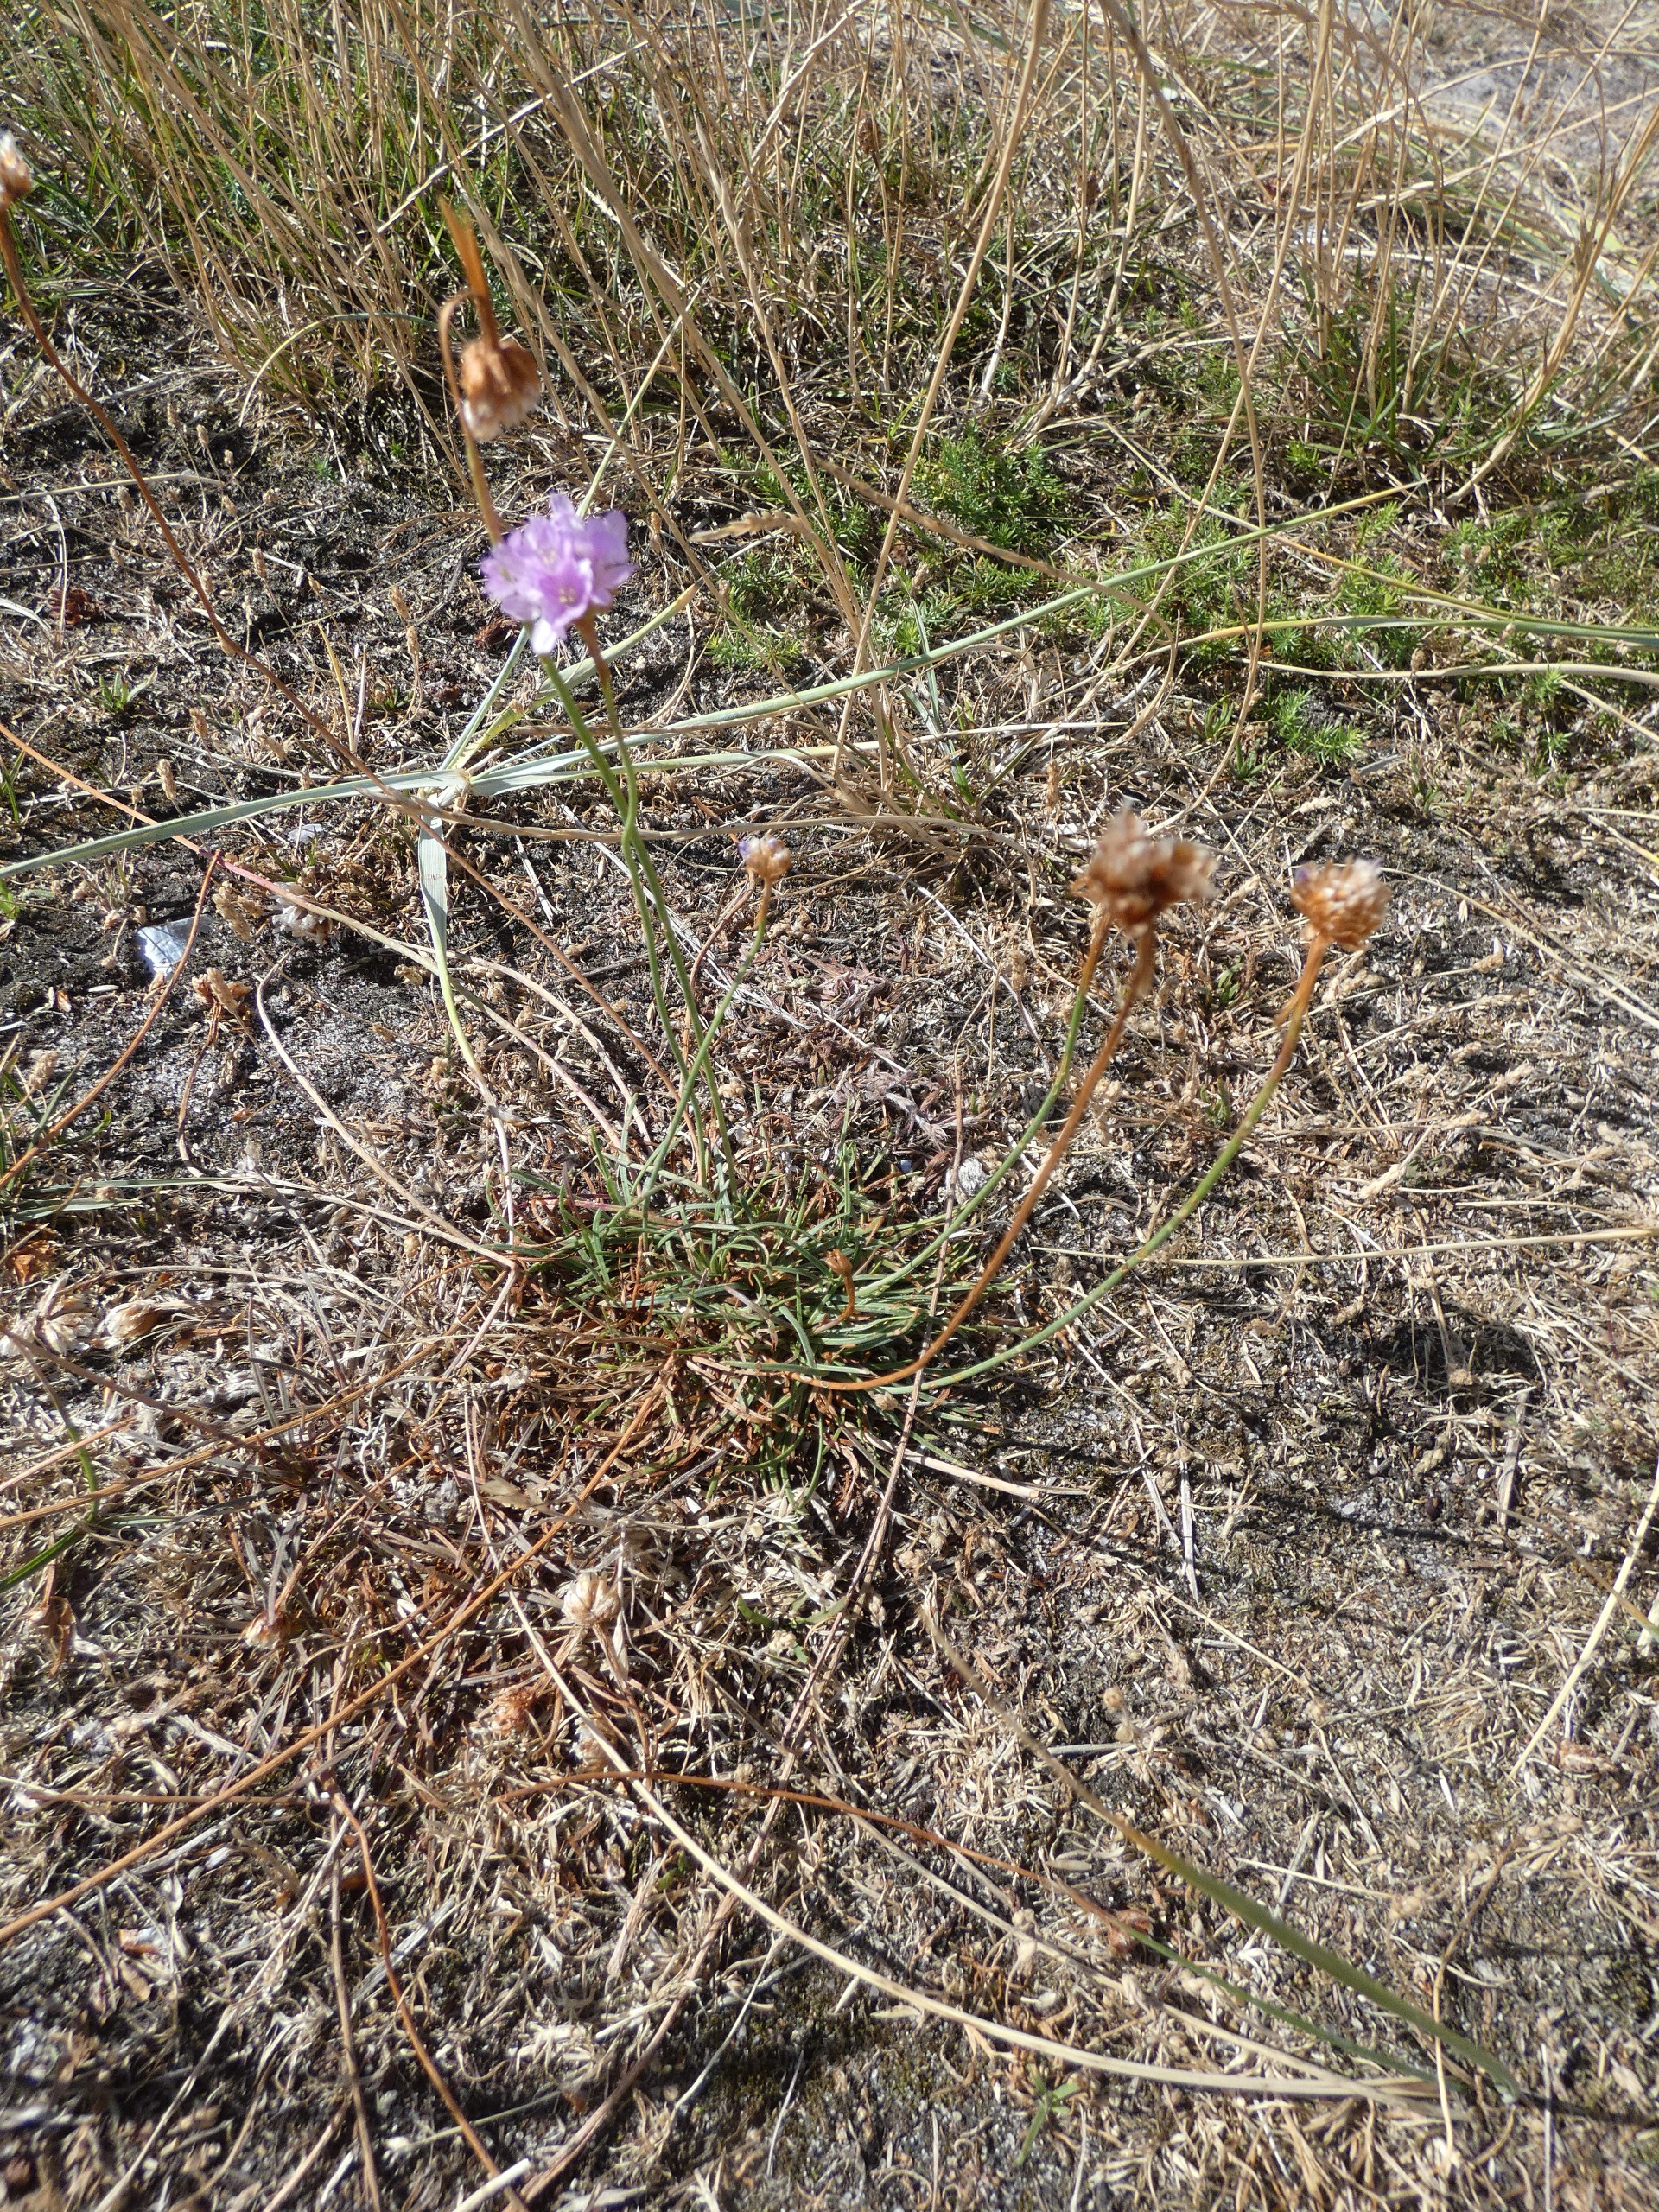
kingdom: Plantae
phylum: Tracheophyta
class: Magnoliopsida
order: Caryophyllales
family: Plumbaginaceae
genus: Armeria
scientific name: Armeria maritima
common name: Engelskgræs
